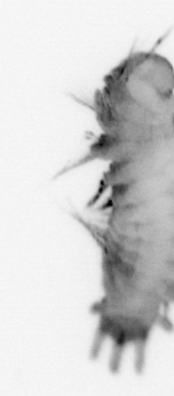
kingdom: Animalia
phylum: Annelida
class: Polychaeta
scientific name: Polychaeta
